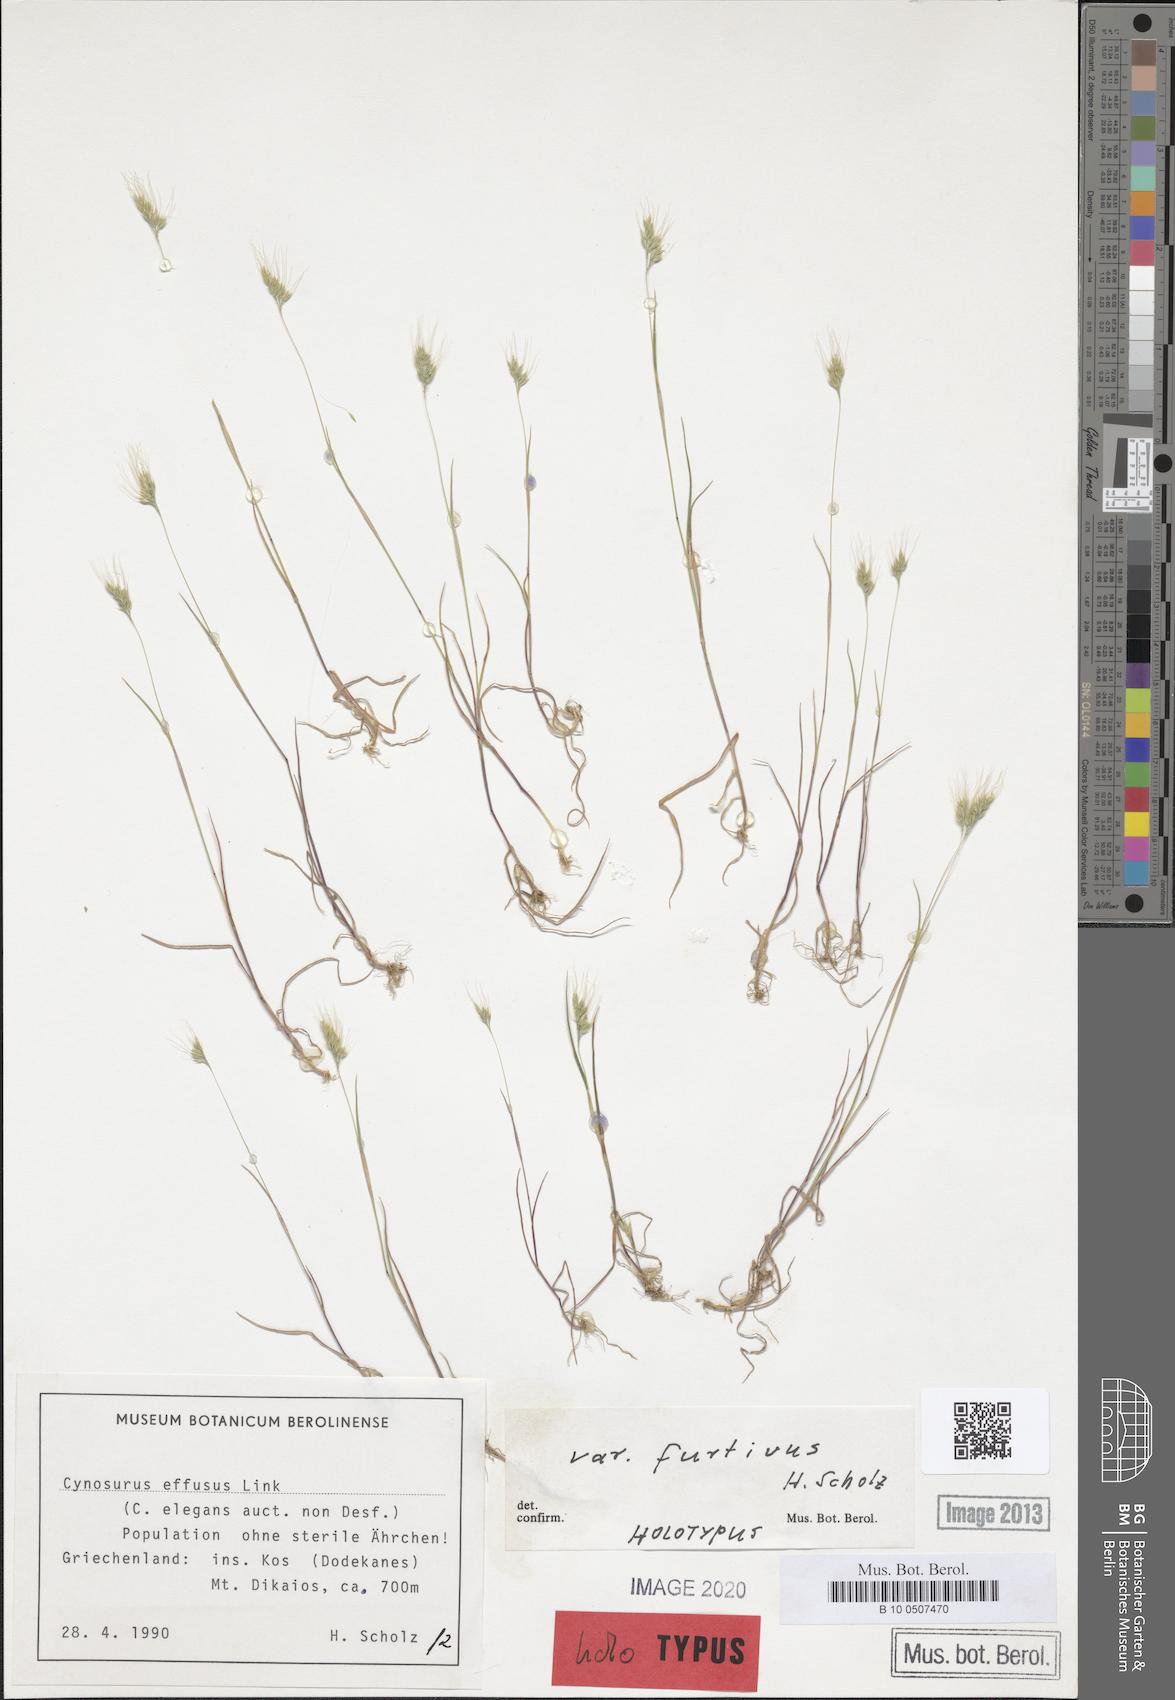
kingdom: Plantae
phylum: Tracheophyta
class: Liliopsida
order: Poales
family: Poaceae
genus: Cynosurus
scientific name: Cynosurus fertilis
